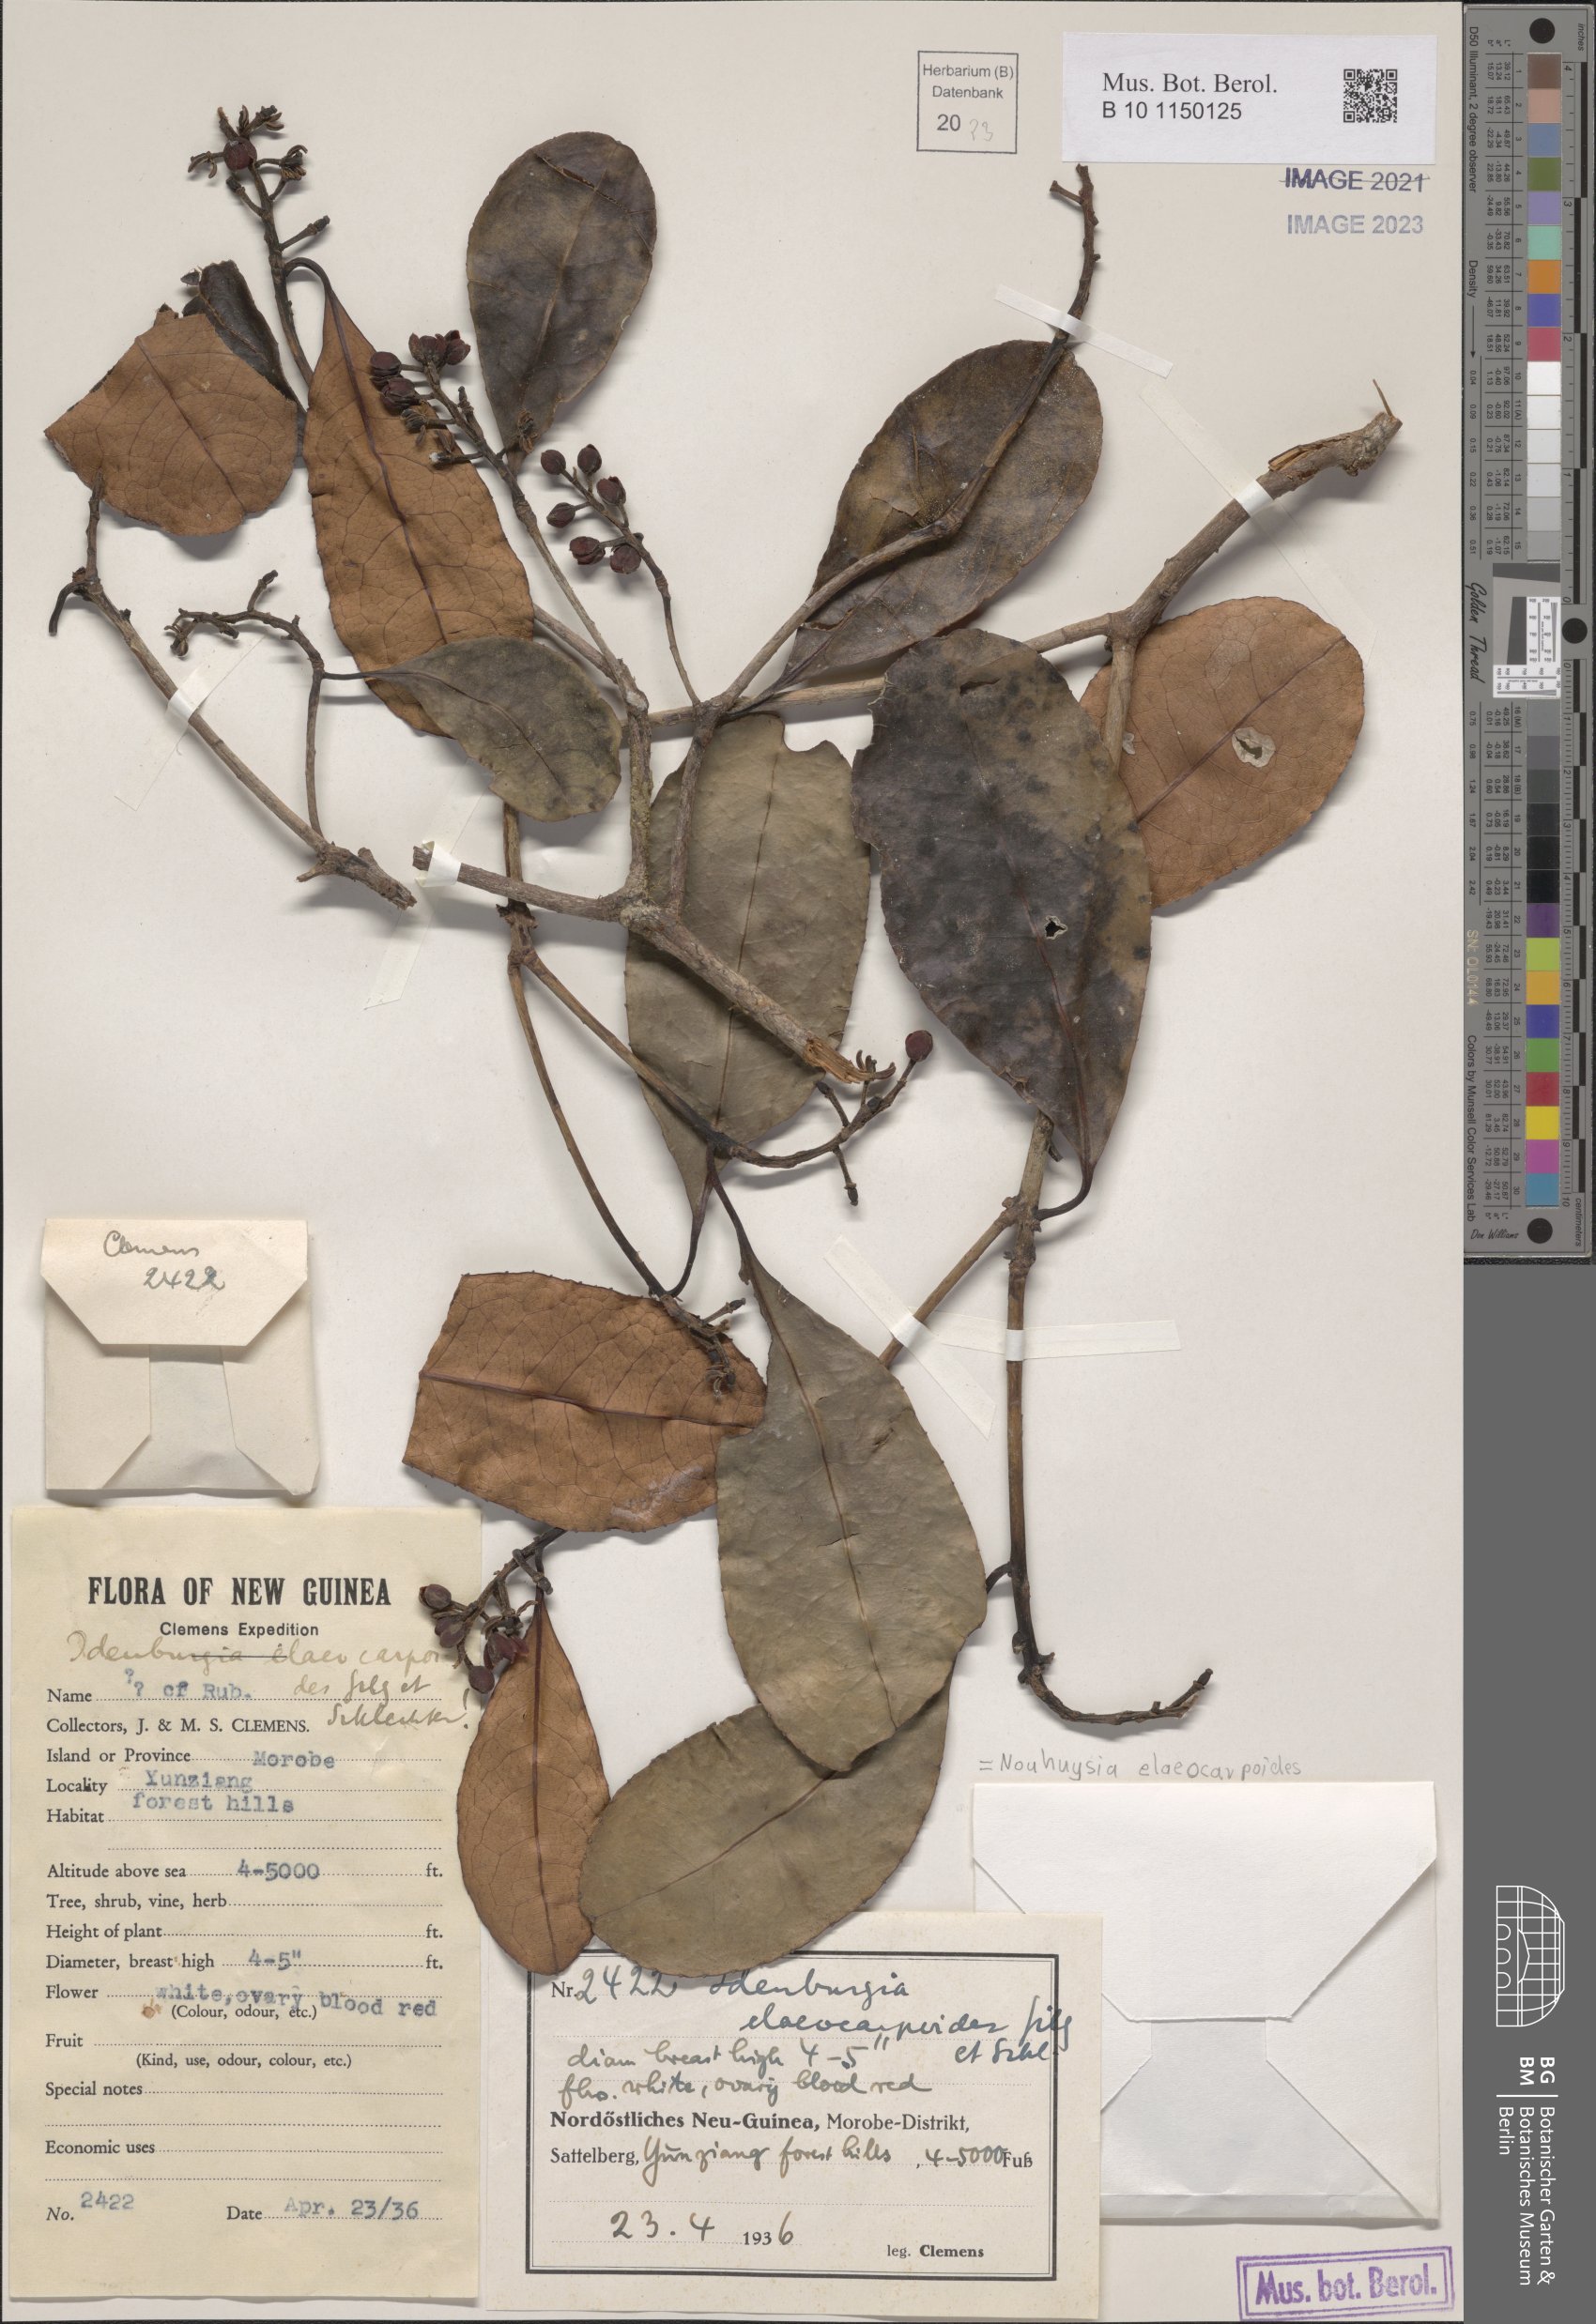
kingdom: Plantae
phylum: Tracheophyta
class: Magnoliopsida
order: Paracryphiales
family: Paracryphiaceae
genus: Sphenostemon
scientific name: Sphenostemon papuanus
